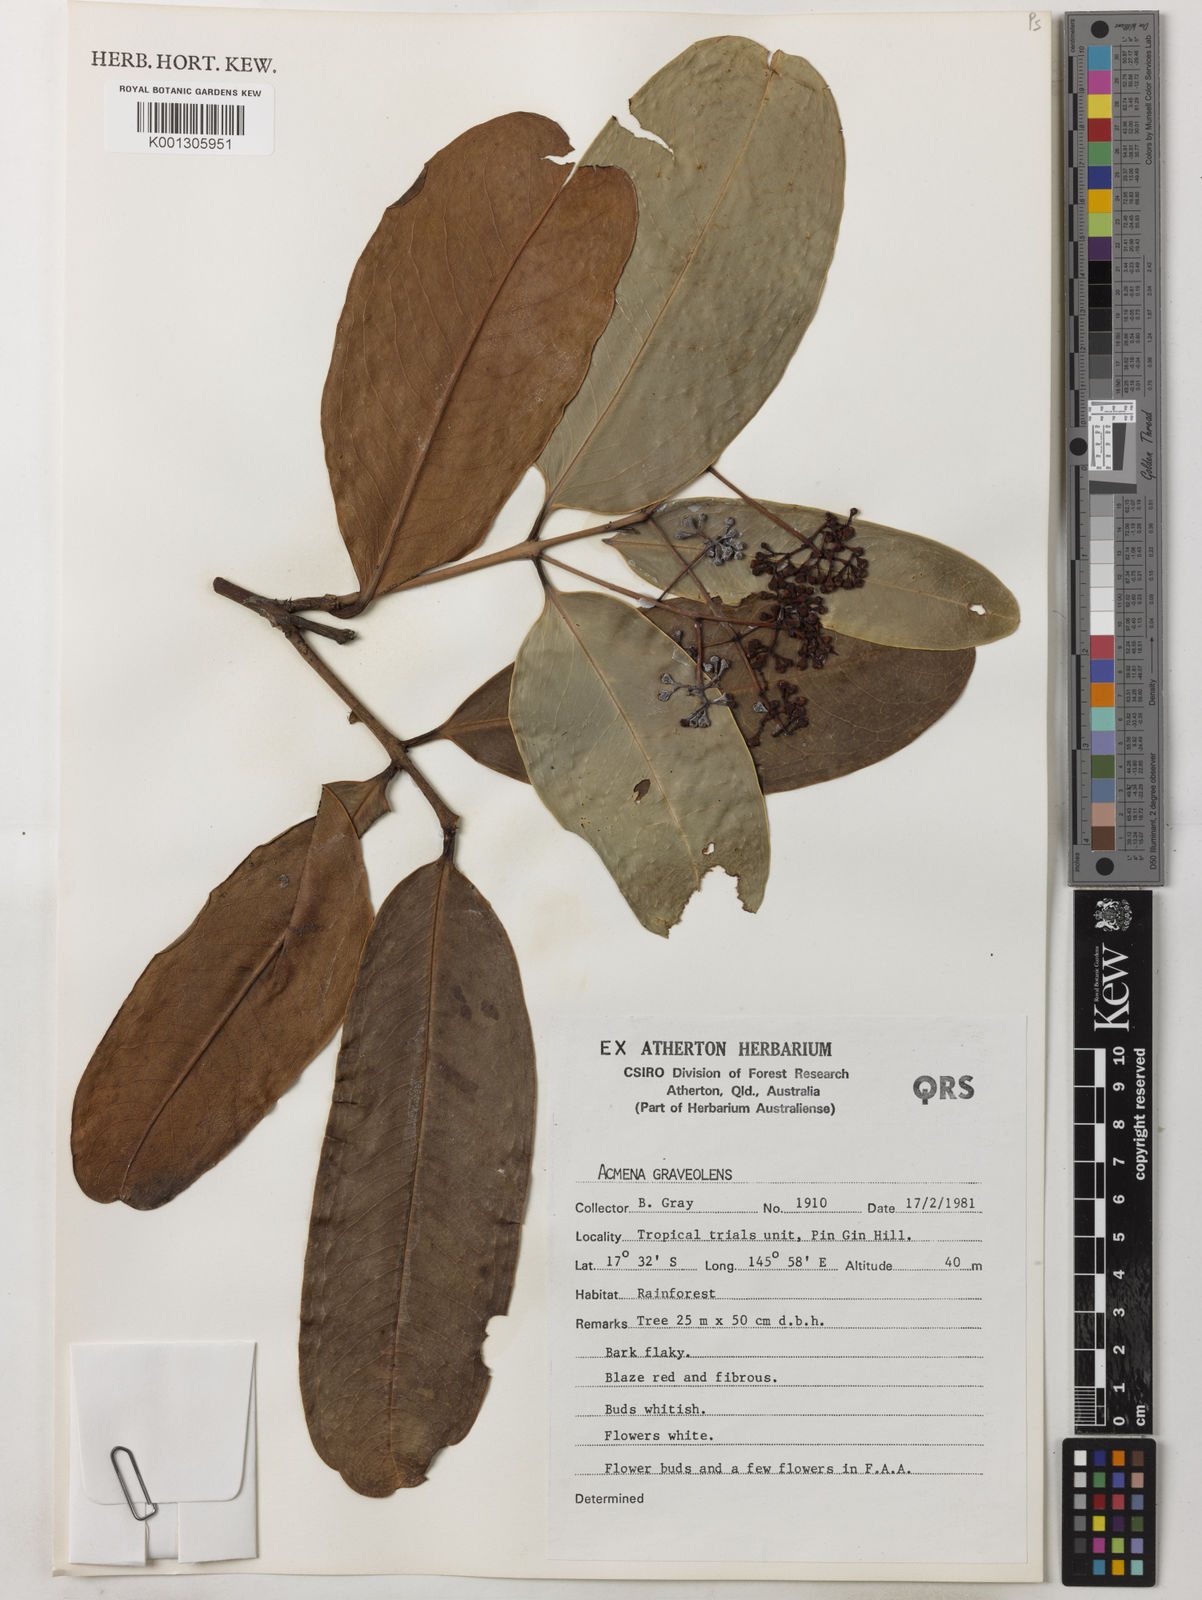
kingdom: Plantae
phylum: Tracheophyta
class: Magnoliopsida
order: Myrtales
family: Myrtaceae
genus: Syzygium
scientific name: Syzygium graveolens
